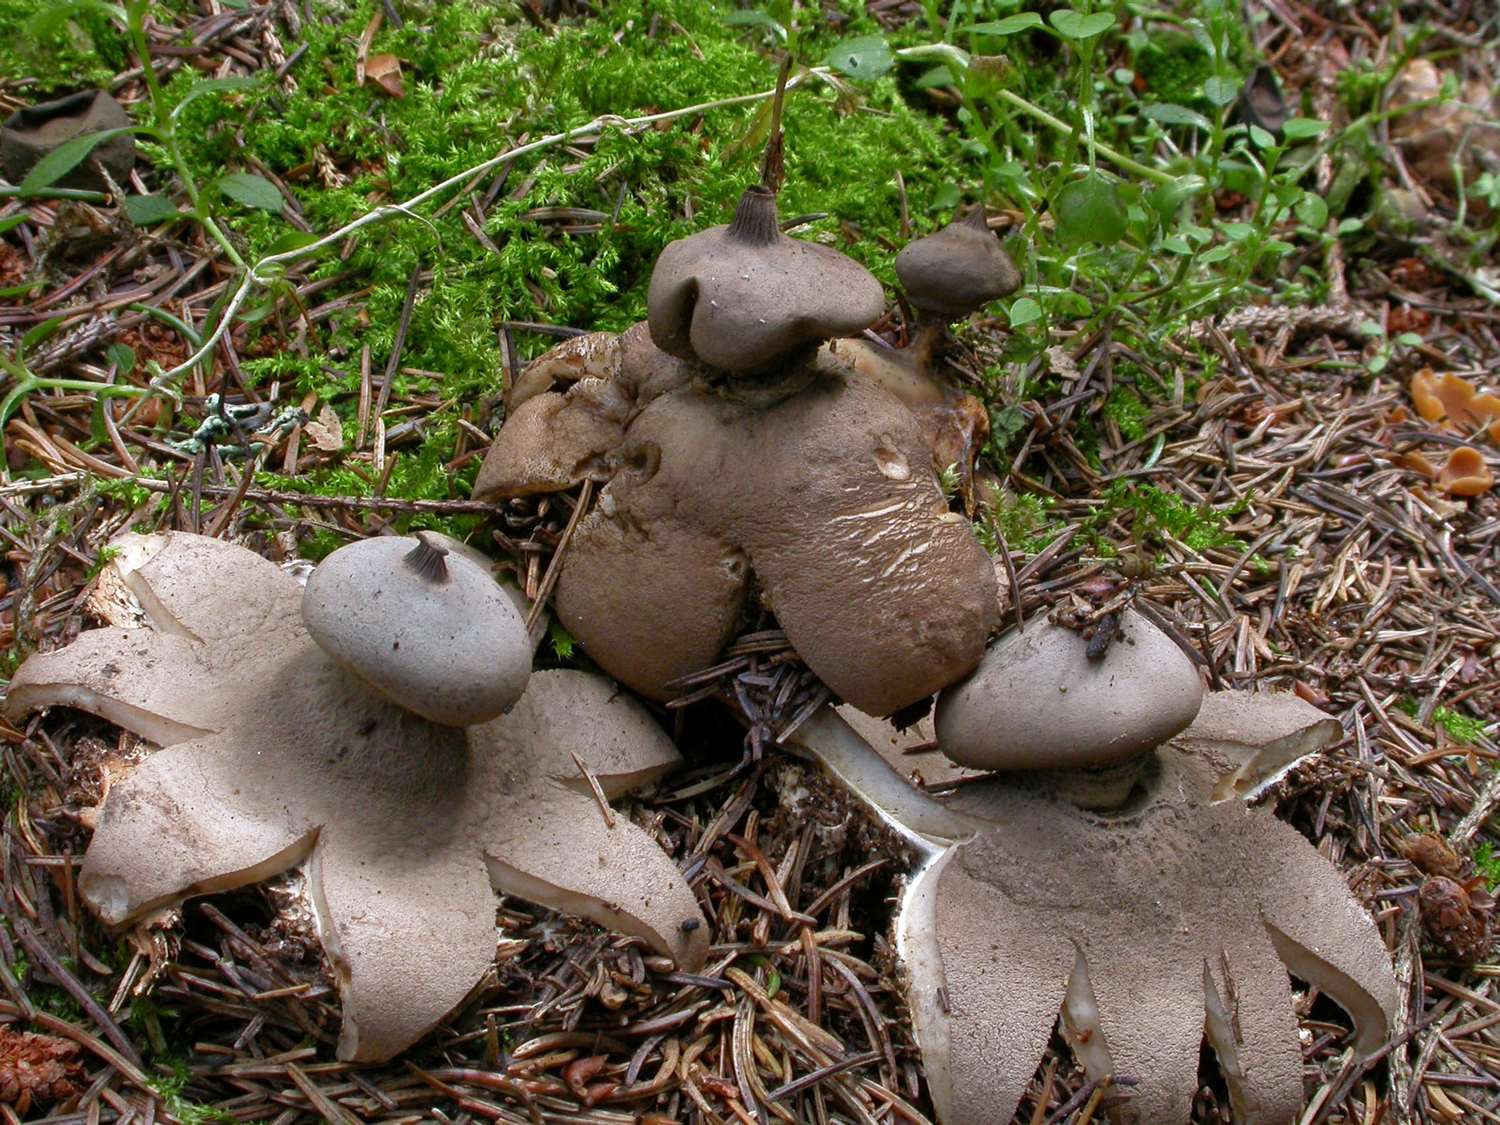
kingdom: Fungi
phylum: Basidiomycota
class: Agaricomycetes
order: Geastrales
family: Geastraceae
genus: Geastrum
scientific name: Geastrum pectinatum
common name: stilket stjernebold
